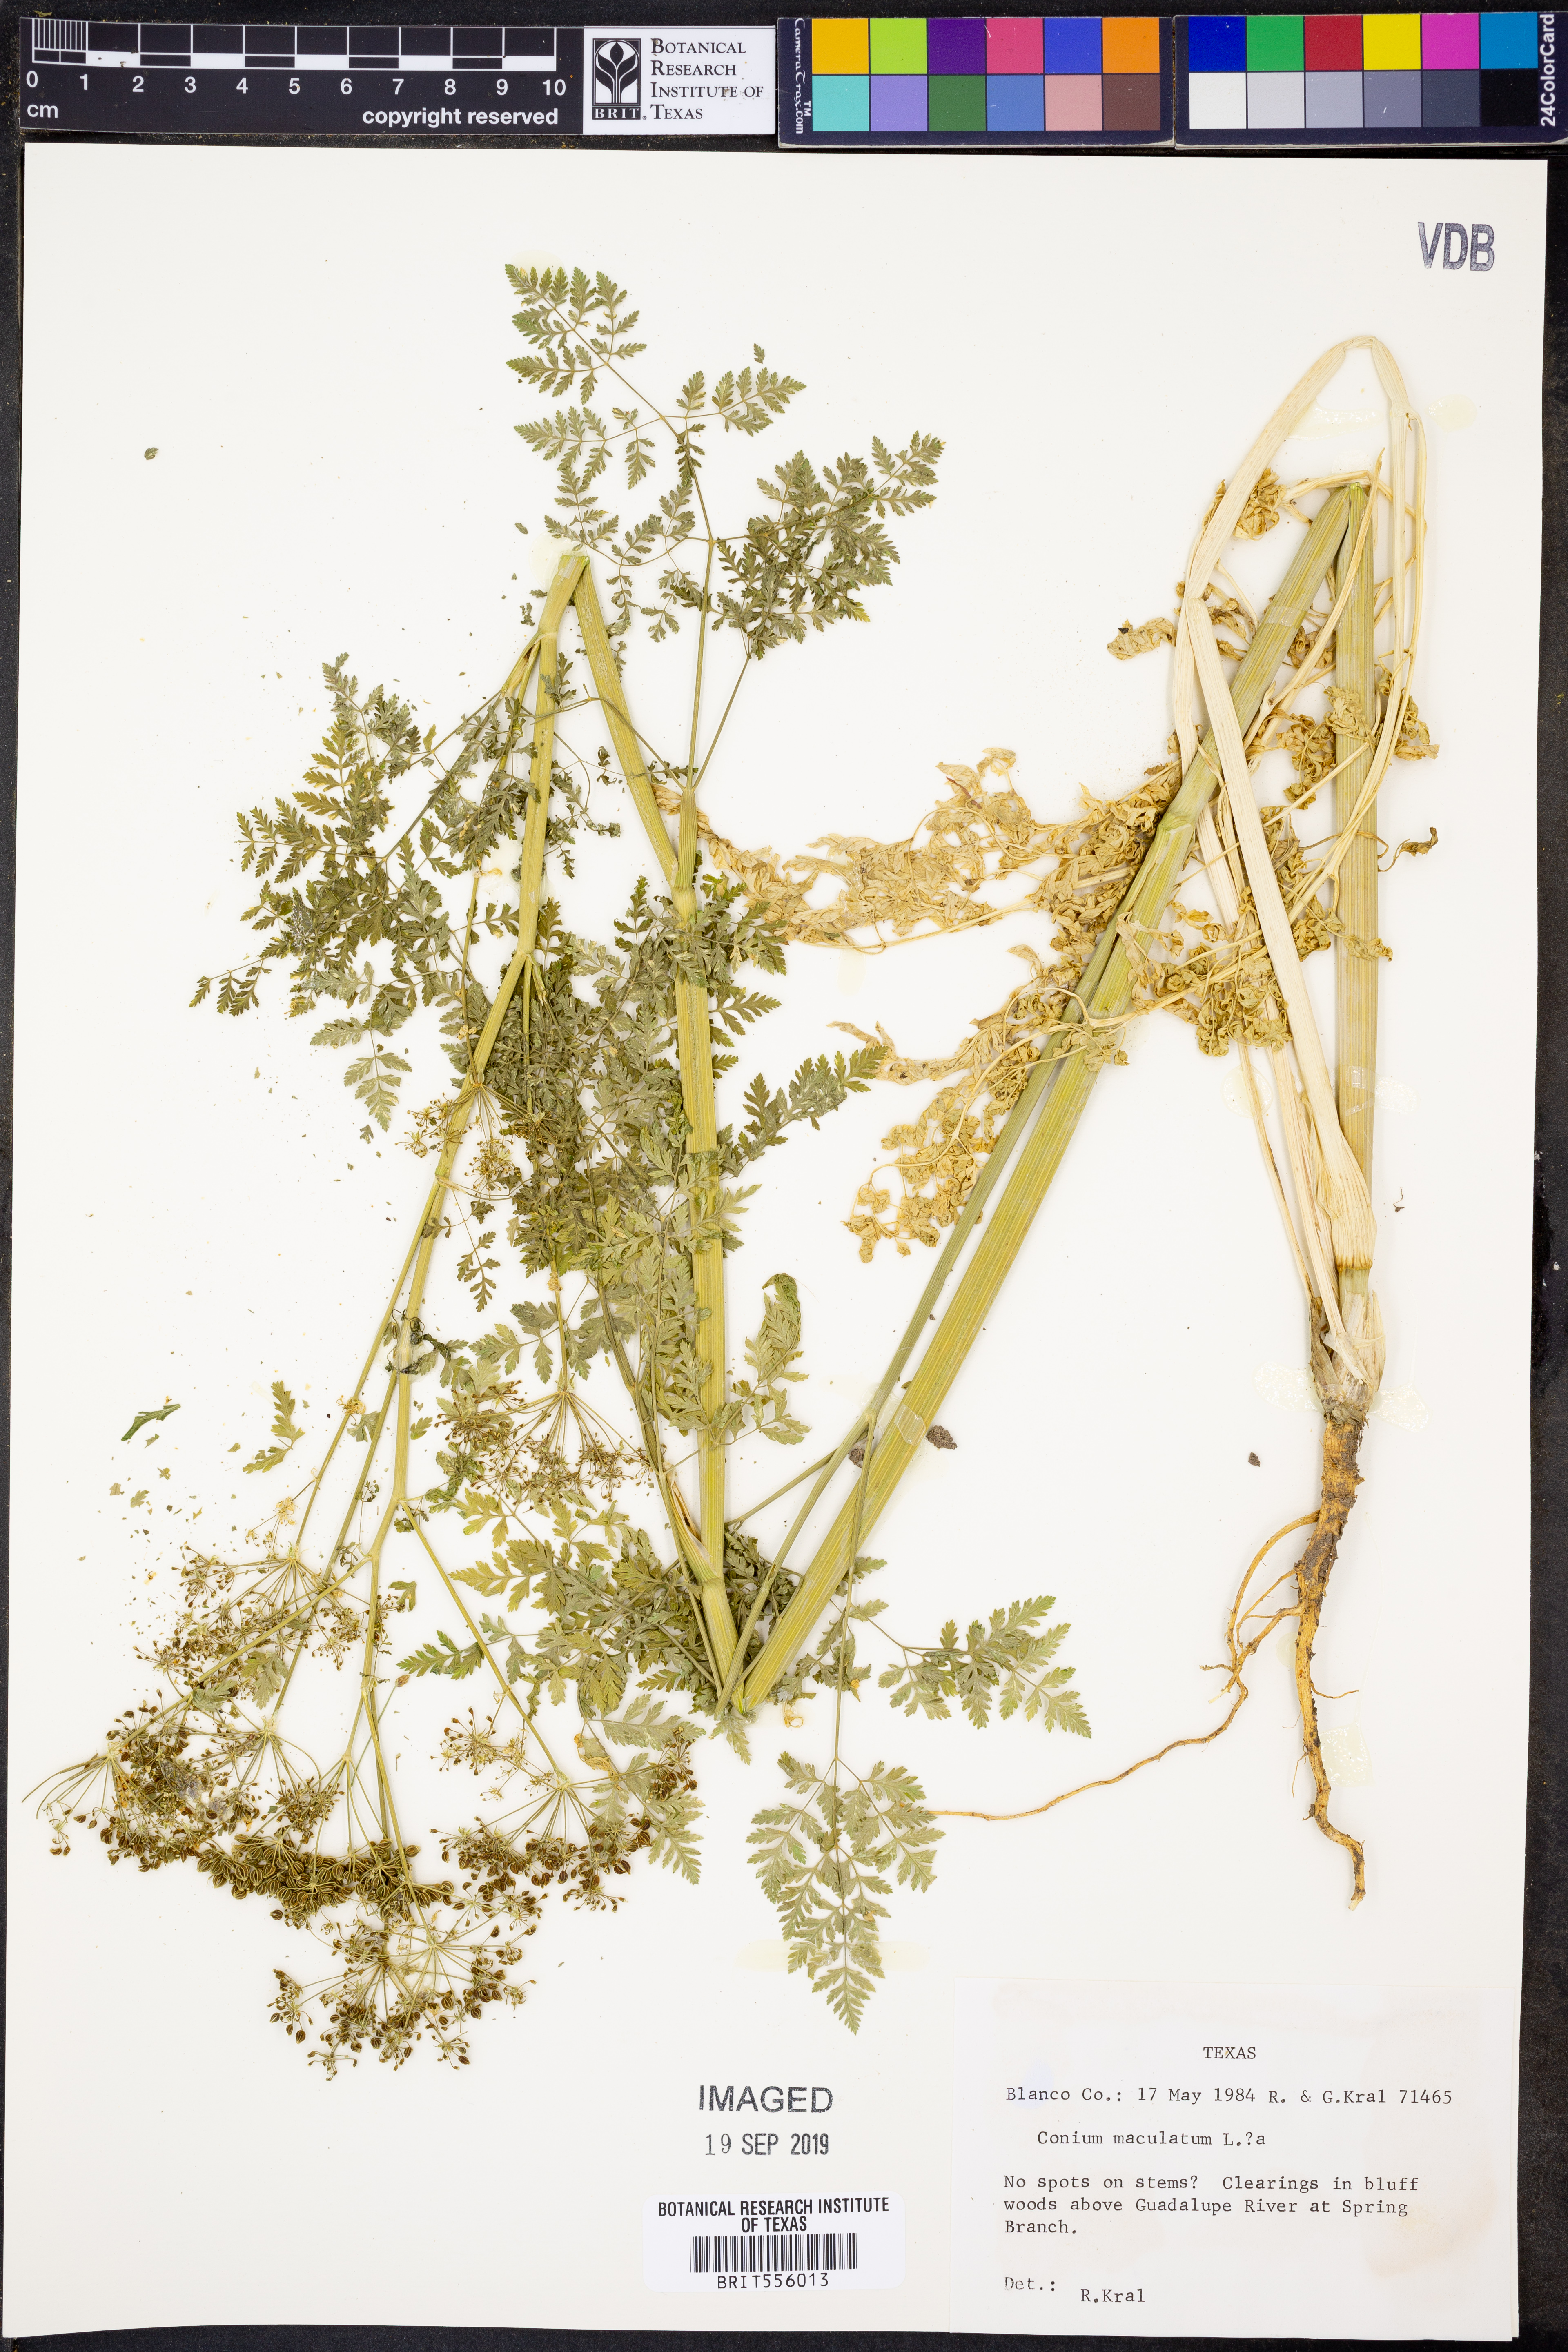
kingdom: Plantae
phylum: Tracheophyta
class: Magnoliopsida
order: Apiales
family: Apiaceae
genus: Conium
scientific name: Conium maculatum
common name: Hemlock
